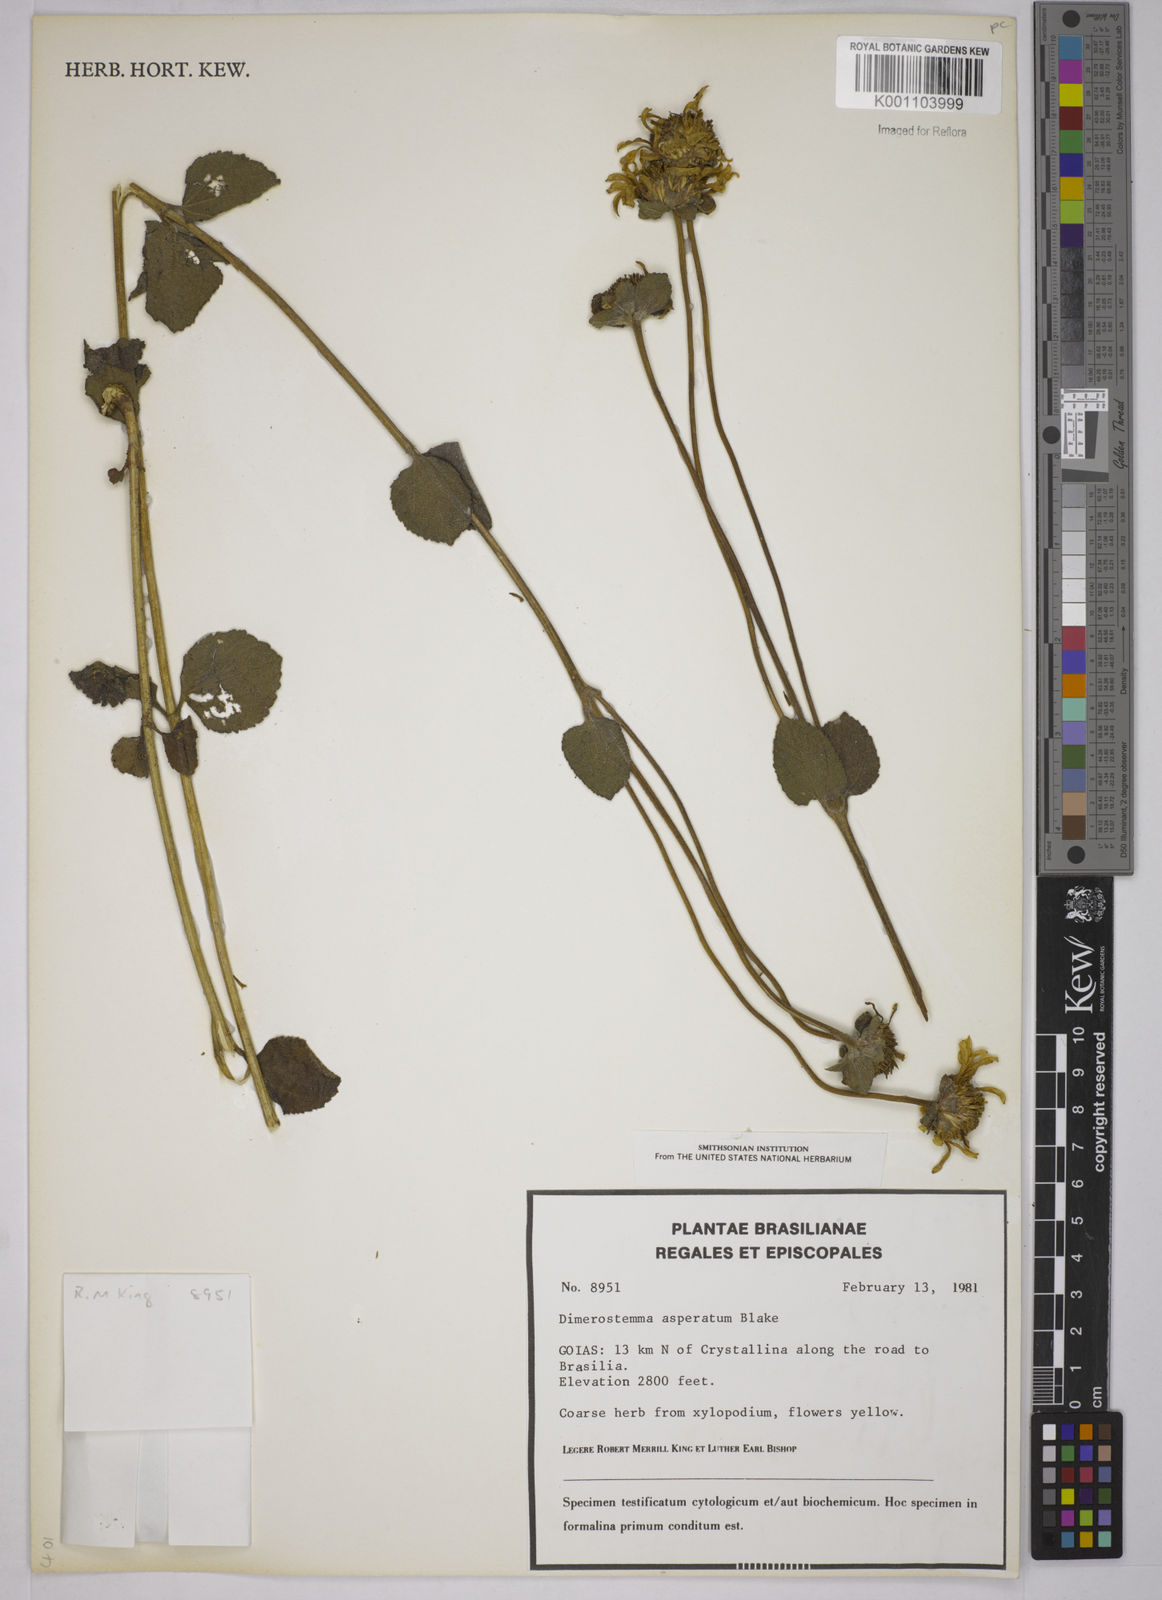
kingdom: Plantae
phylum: Tracheophyta
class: Magnoliopsida
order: Asterales
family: Asteraceae
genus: Dimerostemma
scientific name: Dimerostemma asperatum
